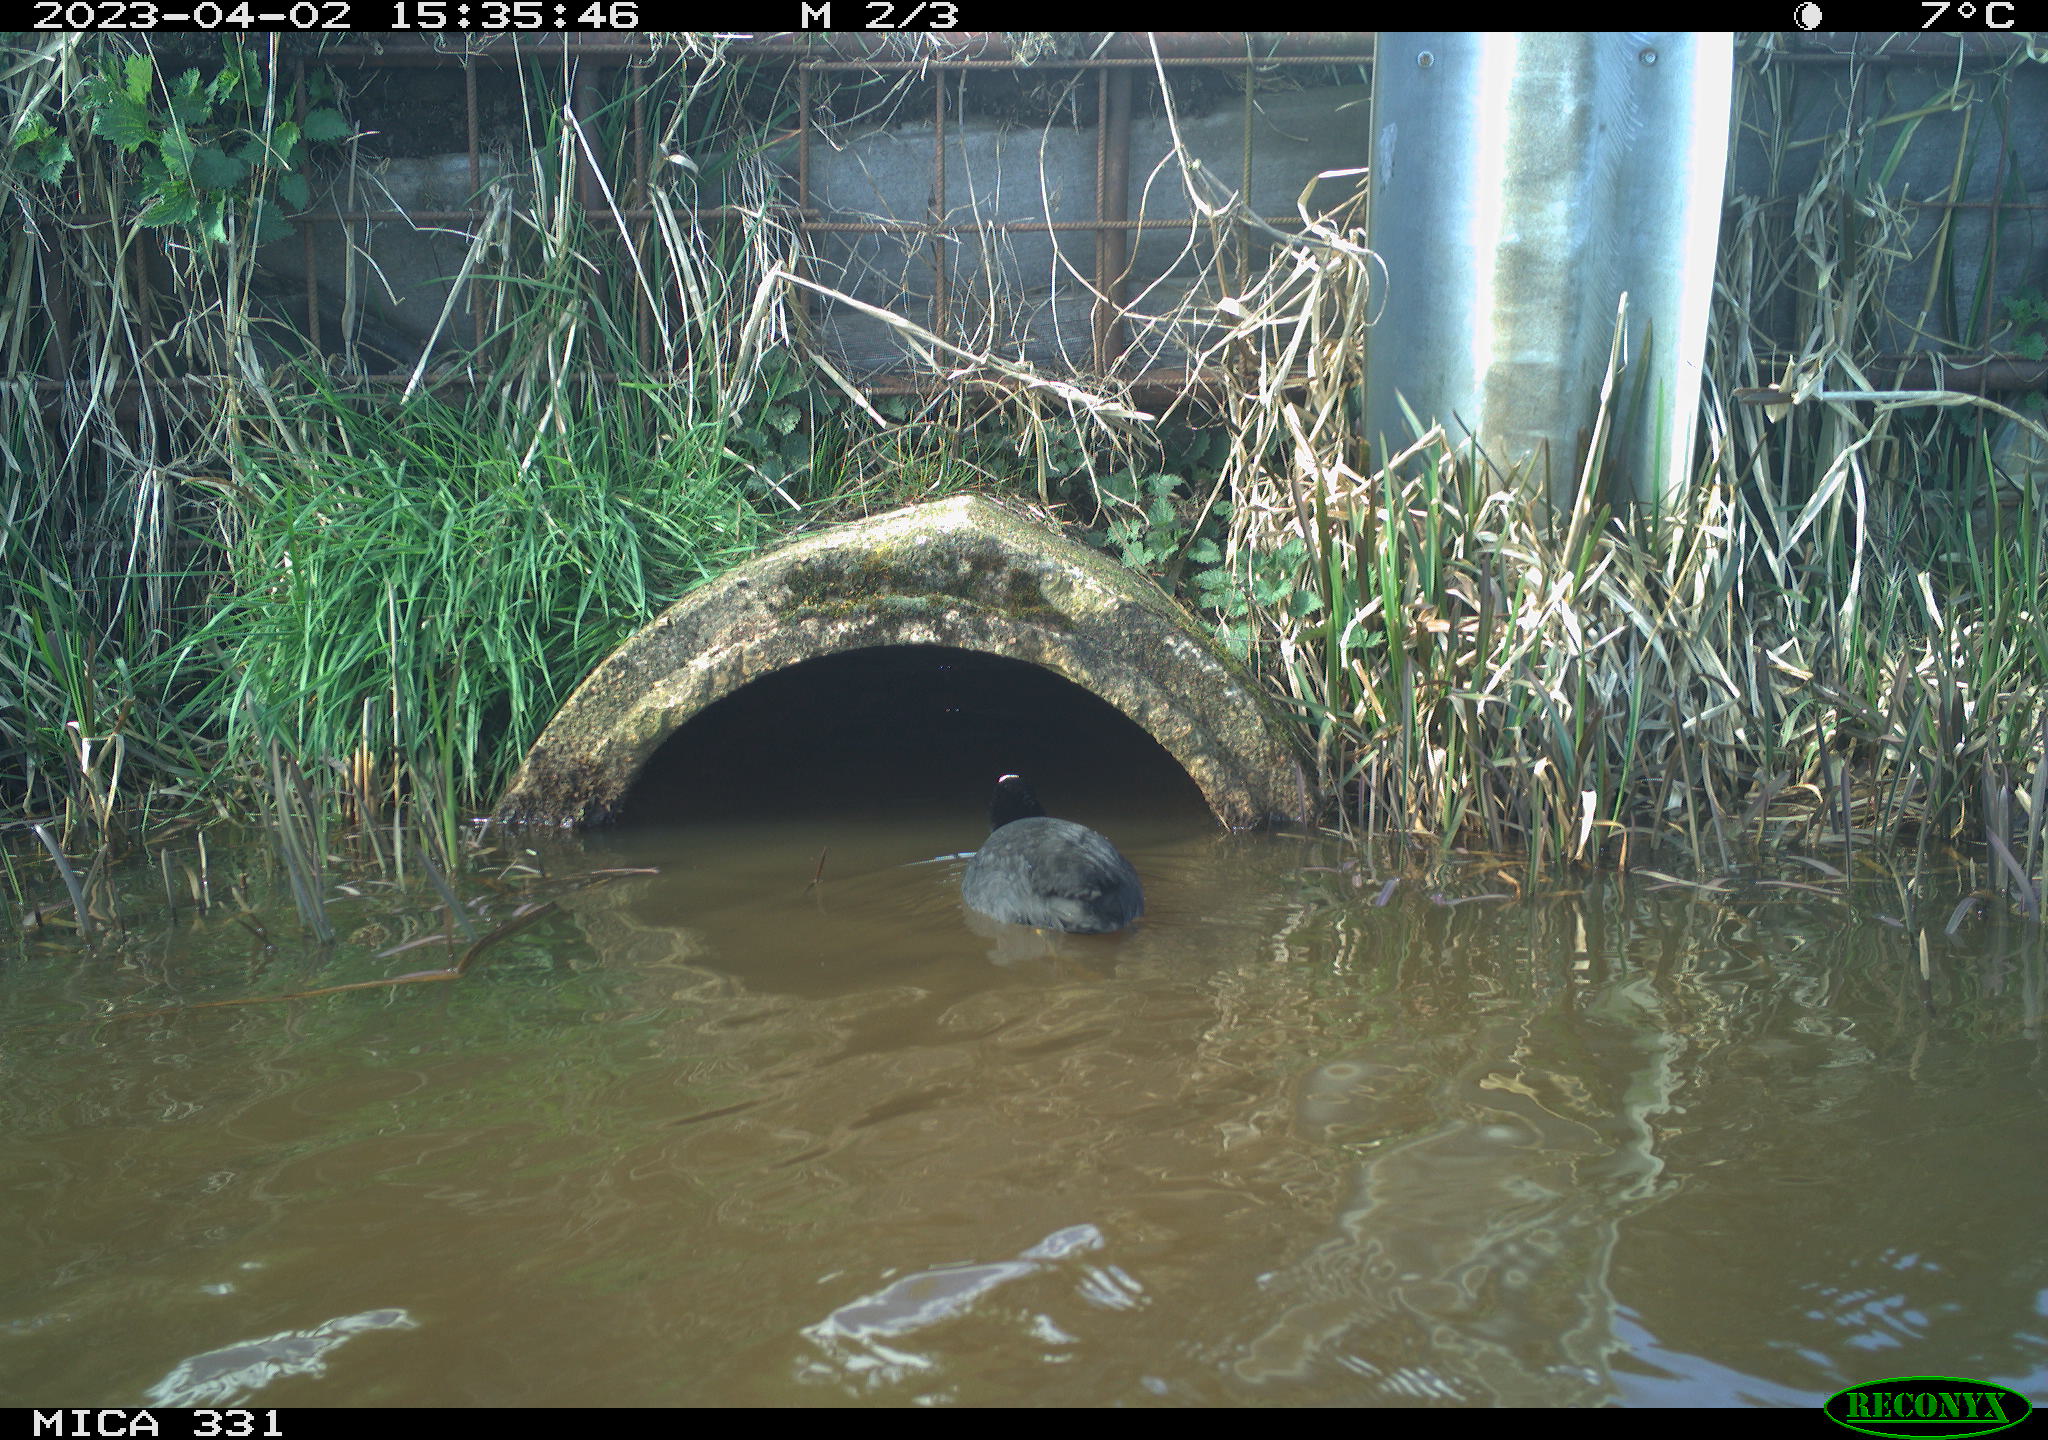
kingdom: Animalia
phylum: Chordata
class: Aves
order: Gruiformes
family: Rallidae
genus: Fulica
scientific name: Fulica atra
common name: Eurasian coot
